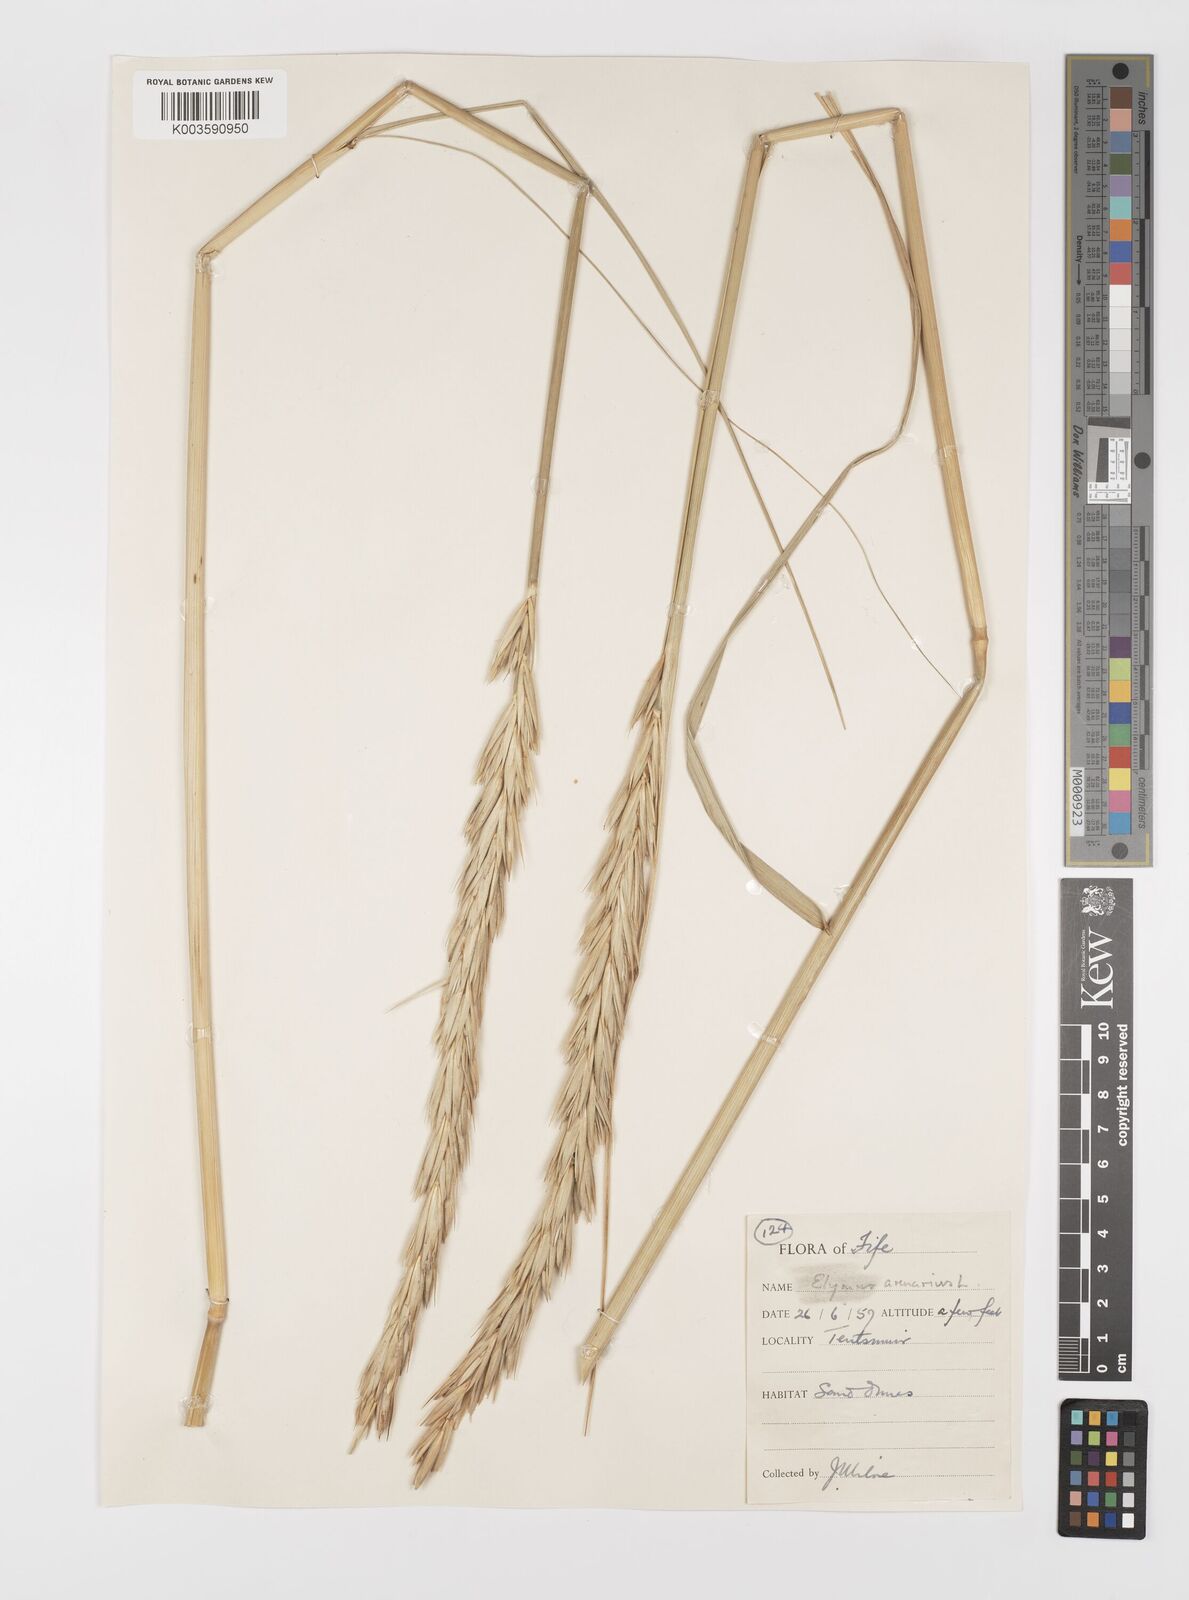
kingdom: Plantae
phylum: Tracheophyta
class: Liliopsida
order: Poales
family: Poaceae
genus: Leymus
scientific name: Leymus arenarius
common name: Lyme-grass
